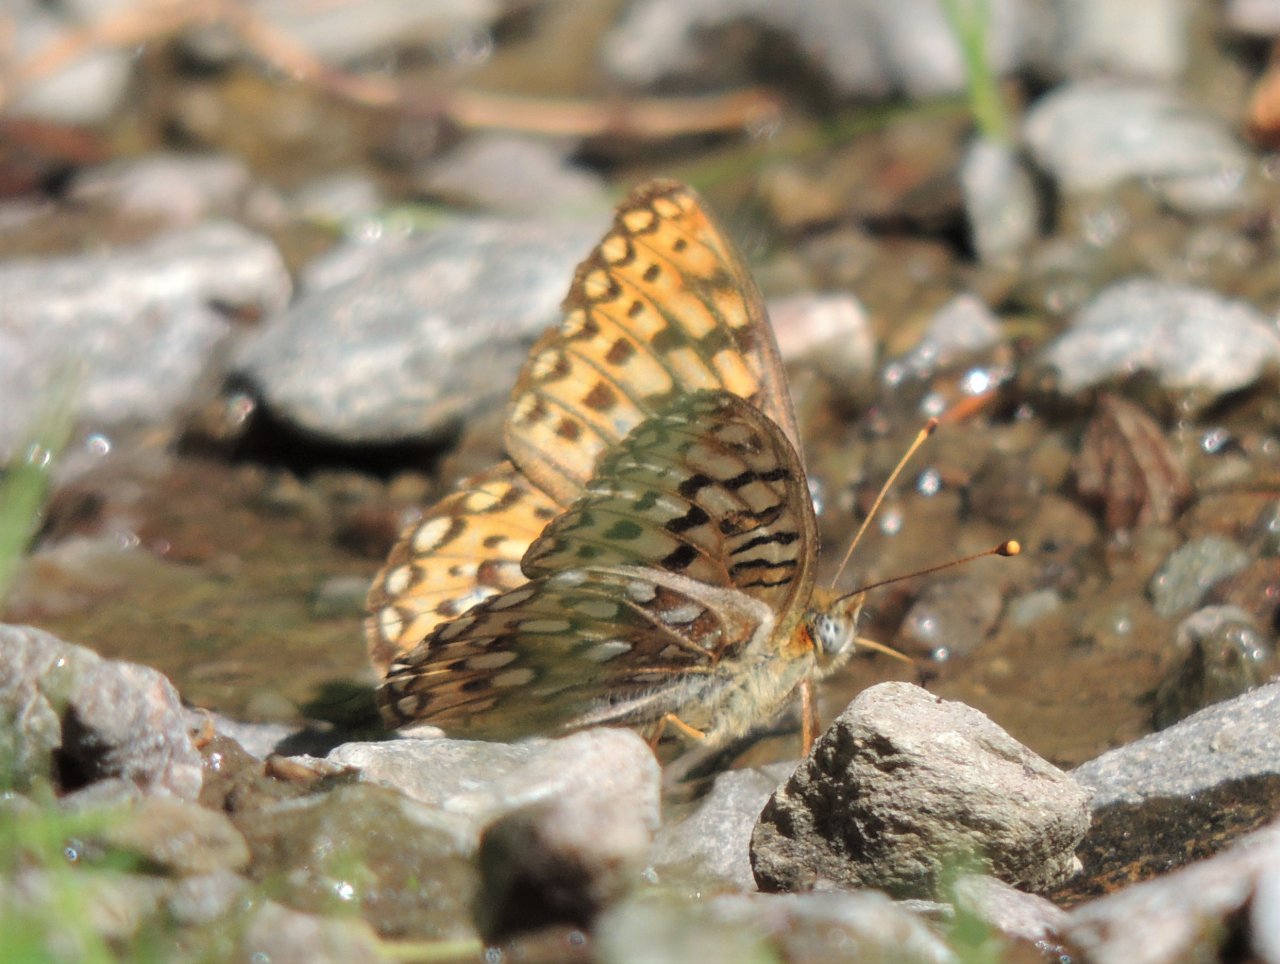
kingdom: Animalia
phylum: Arthropoda
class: Insecta
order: Lepidoptera
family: Nymphalidae
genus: Speyeria
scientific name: Speyeria coronis
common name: Coronis Fritillary
